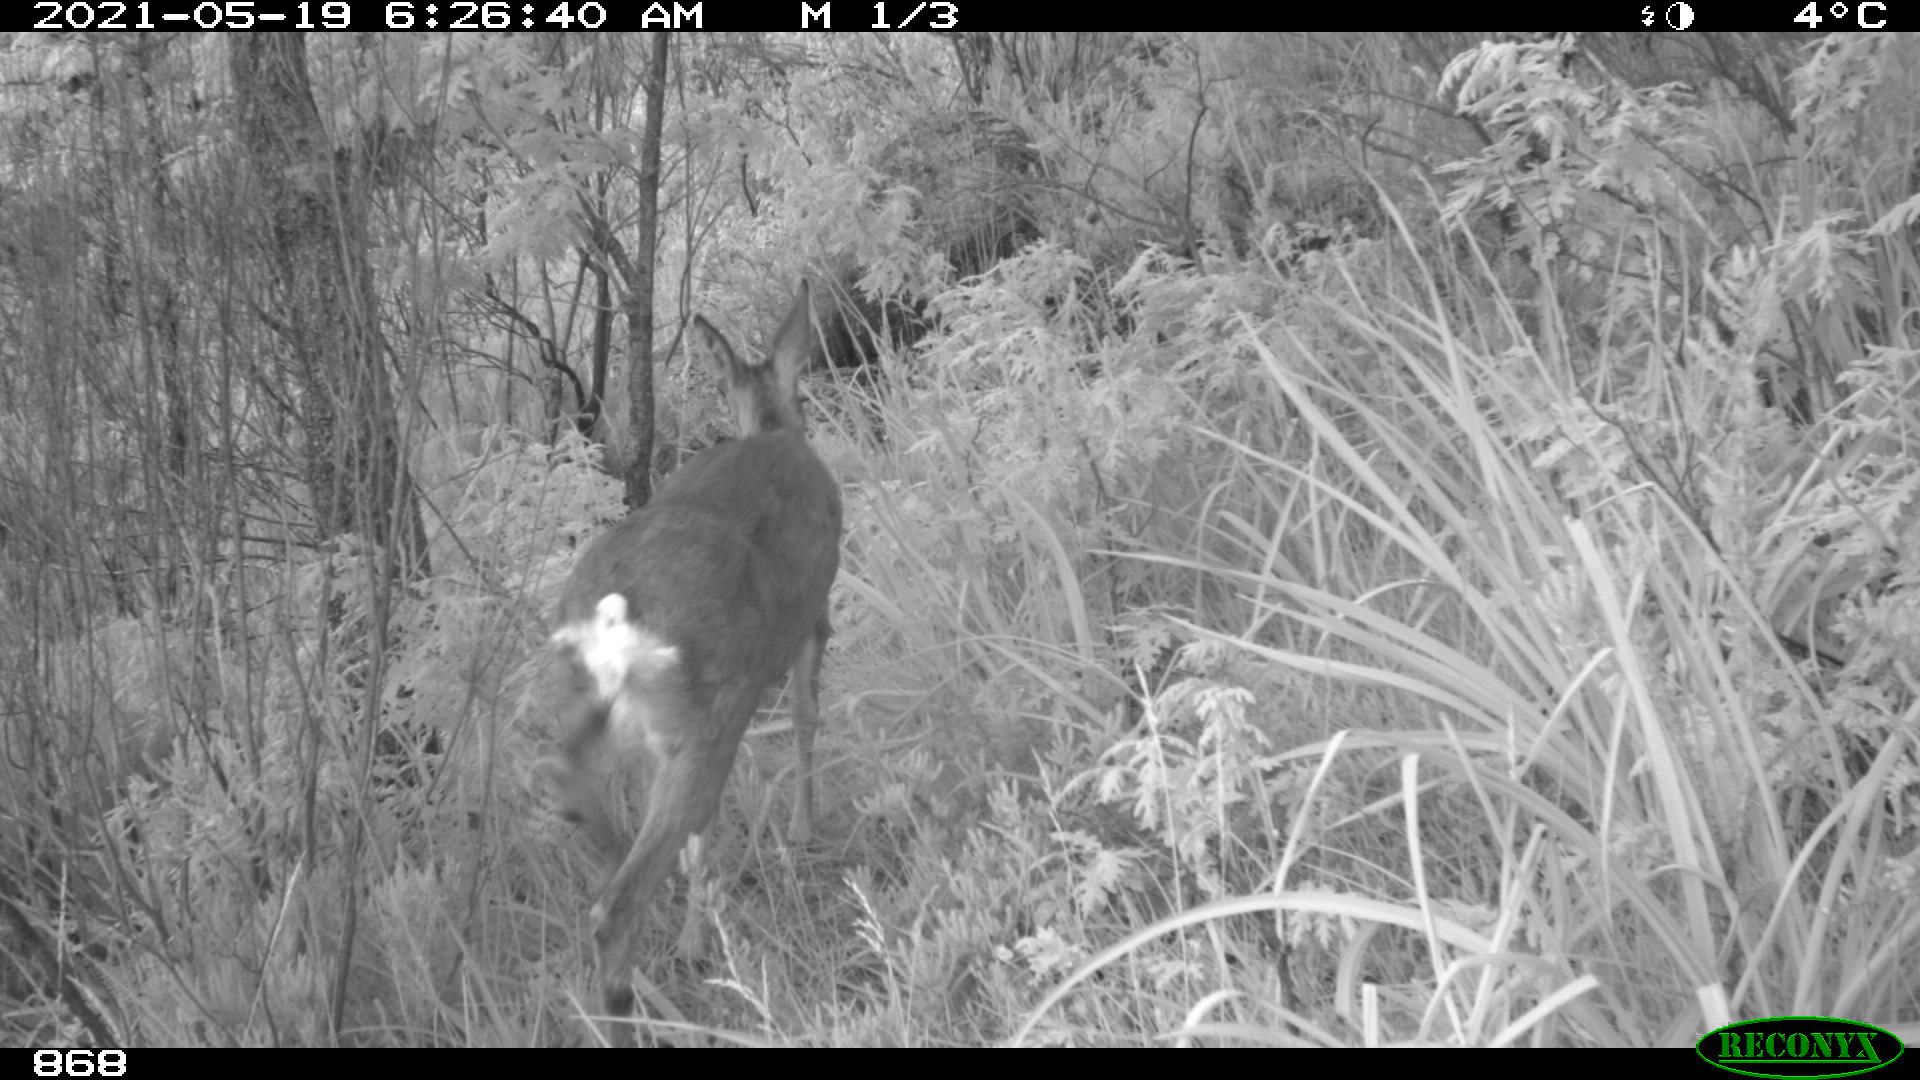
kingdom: Animalia
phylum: Chordata
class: Mammalia
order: Artiodactyla
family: Cervidae
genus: Capreolus
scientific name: Capreolus capreolus
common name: Western roe deer
